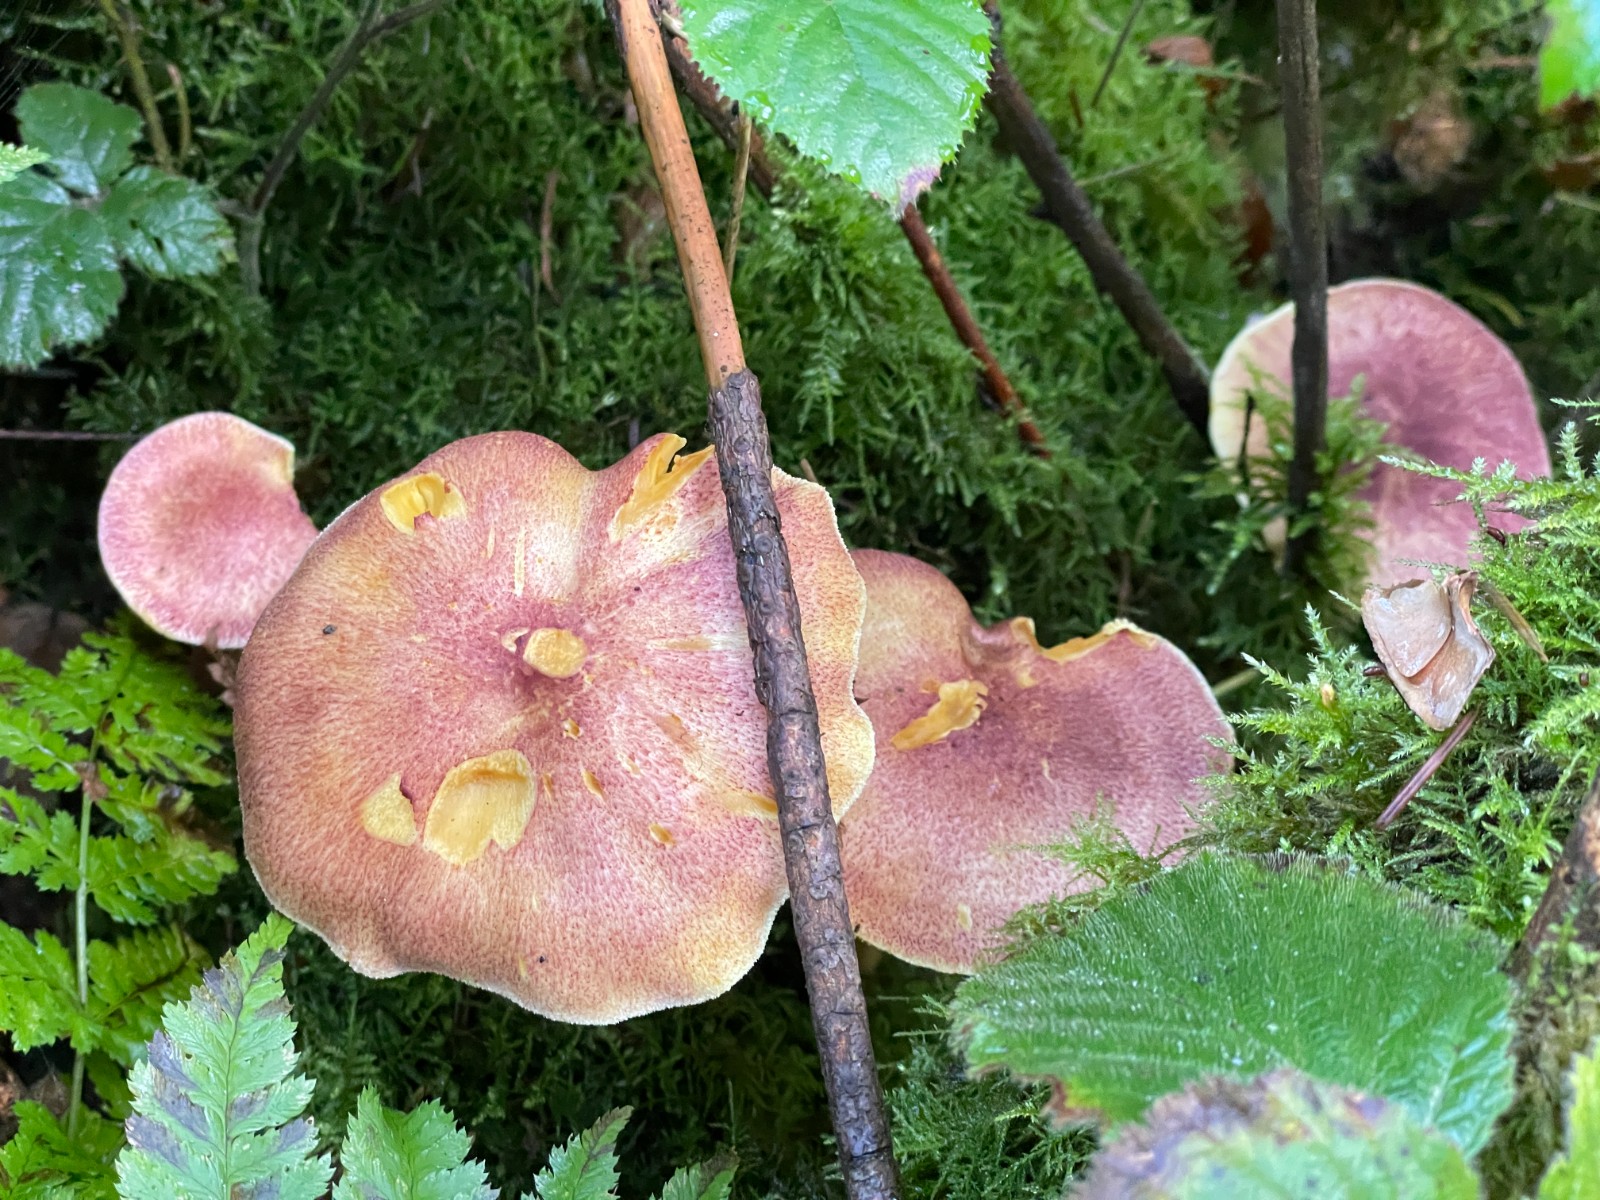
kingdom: Fungi
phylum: Basidiomycota
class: Agaricomycetes
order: Agaricales
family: Tricholomataceae
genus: Tricholomopsis
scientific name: Tricholomopsis rutilans
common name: purpur-væbnerhat
